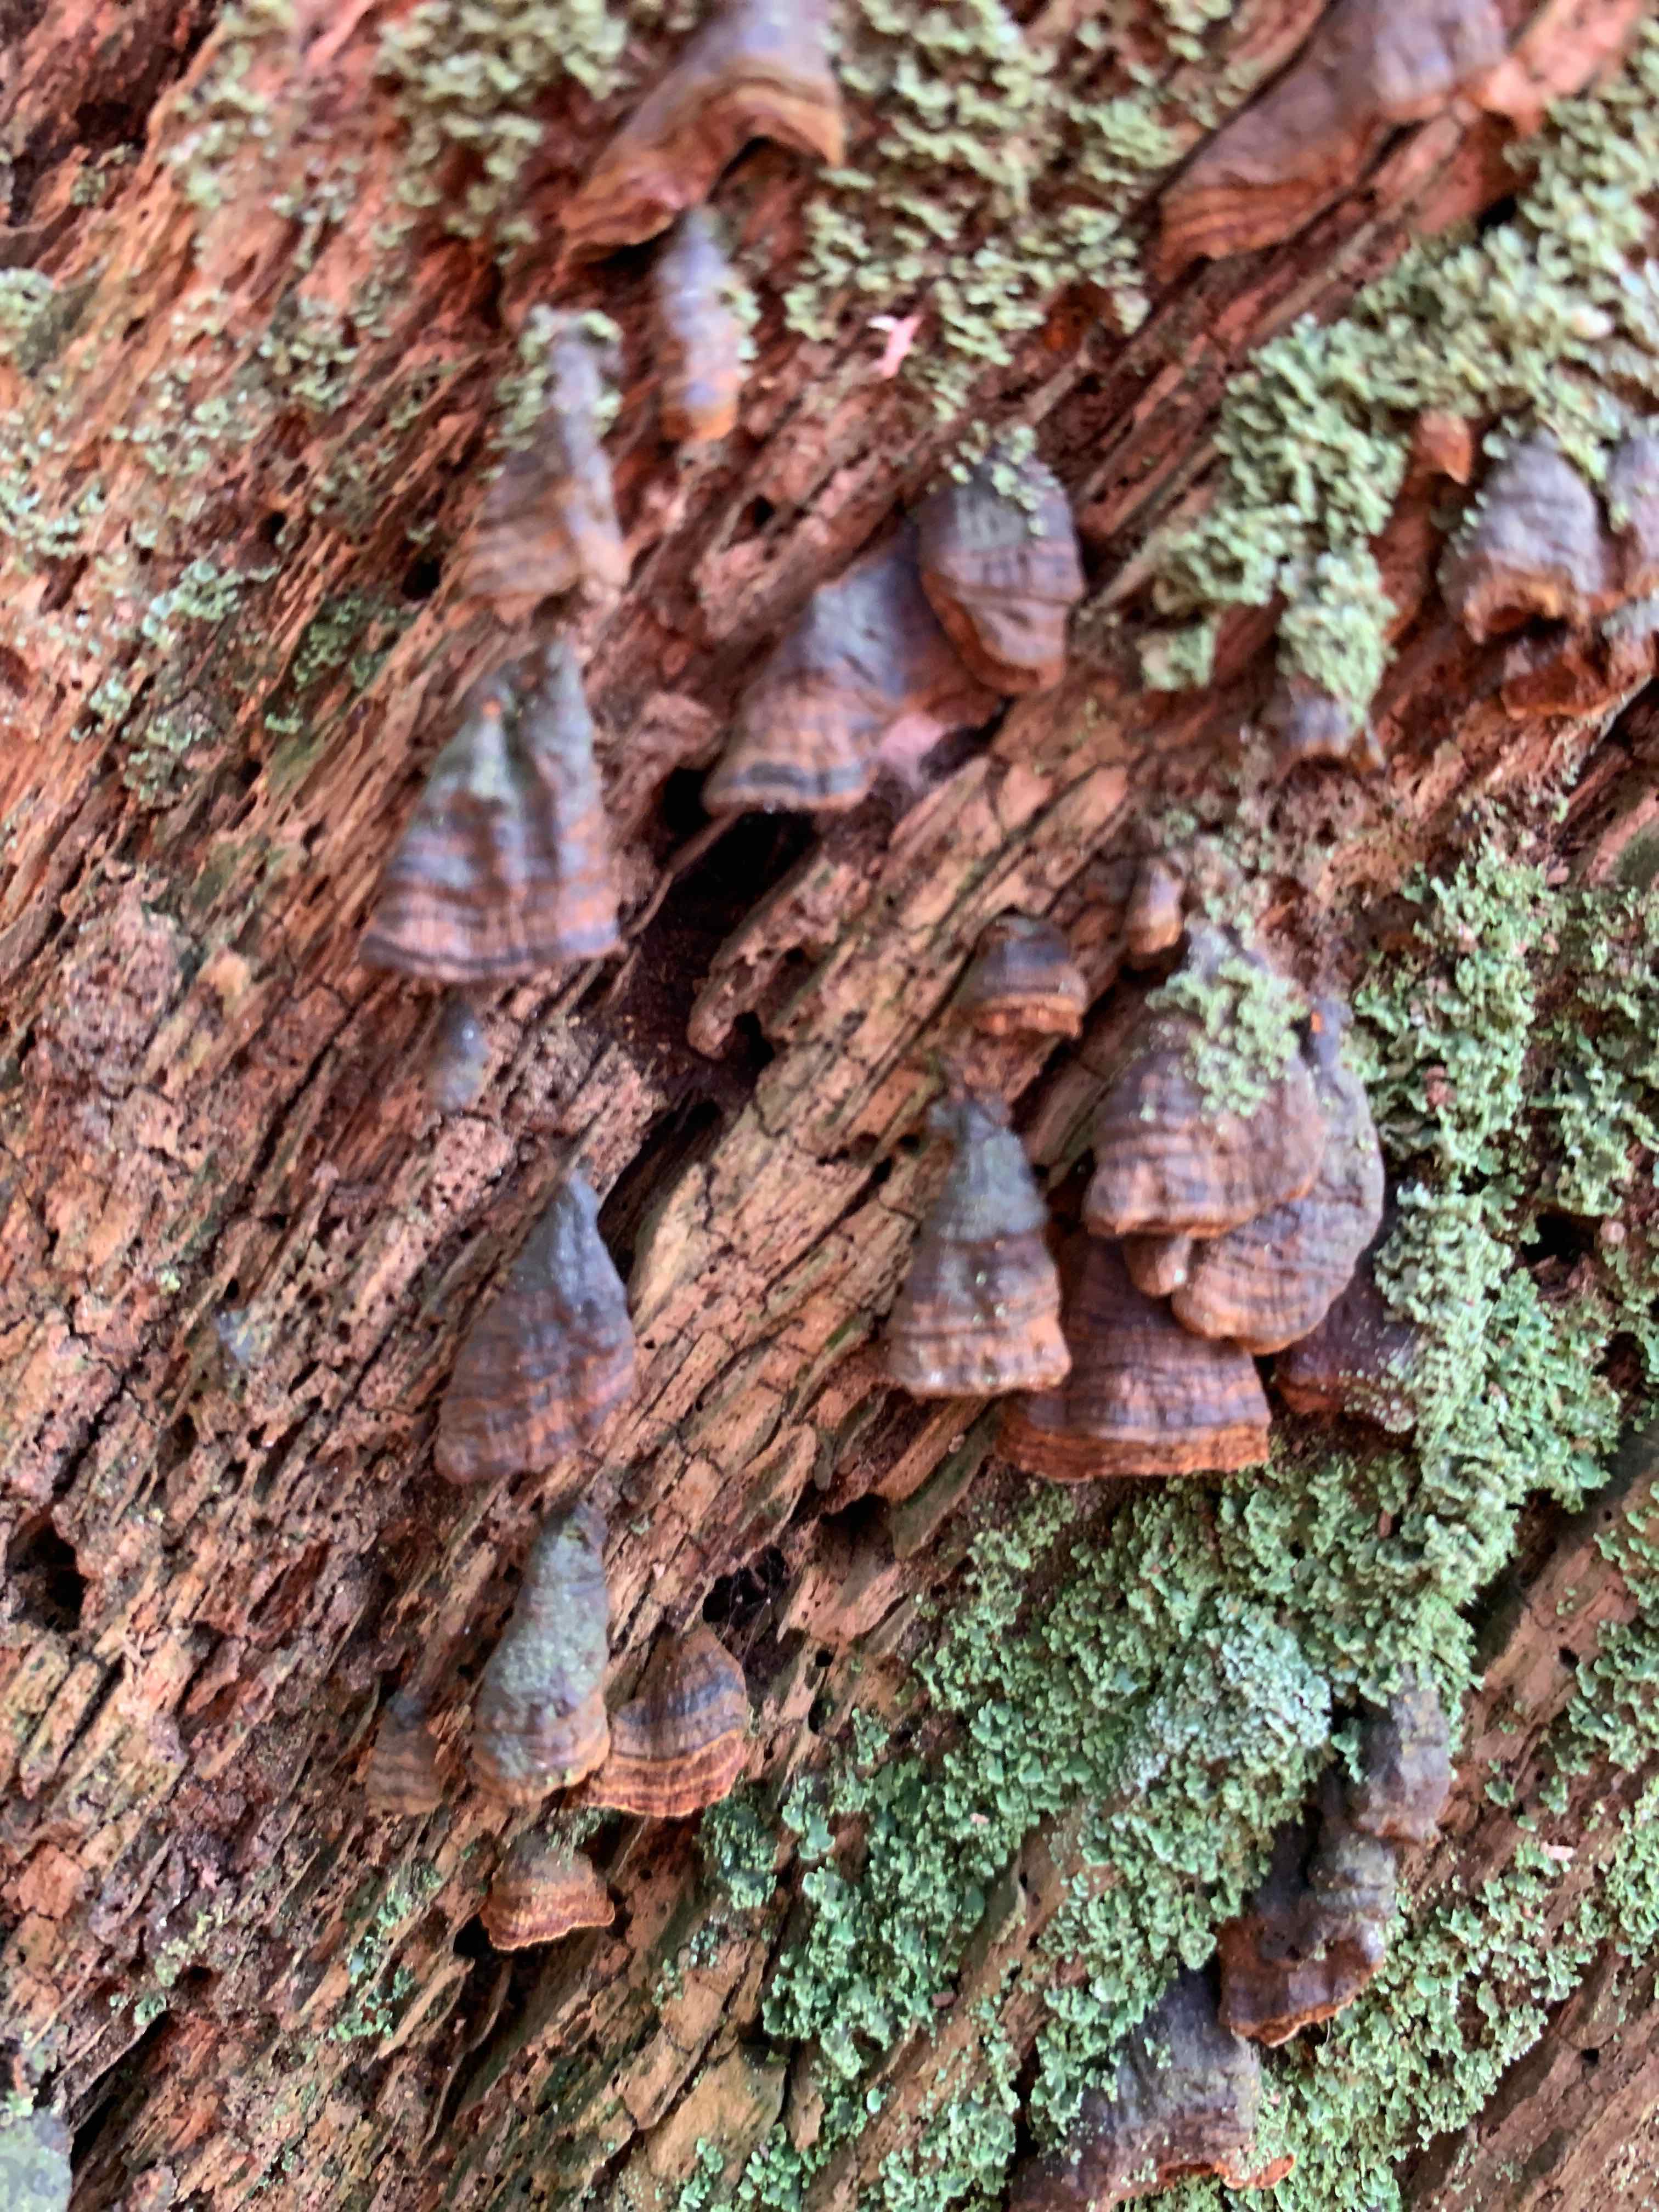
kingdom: Fungi
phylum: Basidiomycota
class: Agaricomycetes
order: Hymenochaetales
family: Hymenochaetaceae
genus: Hymenochaete
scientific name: Hymenochaete rubiginosa
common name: stiv ruslædersvamp
